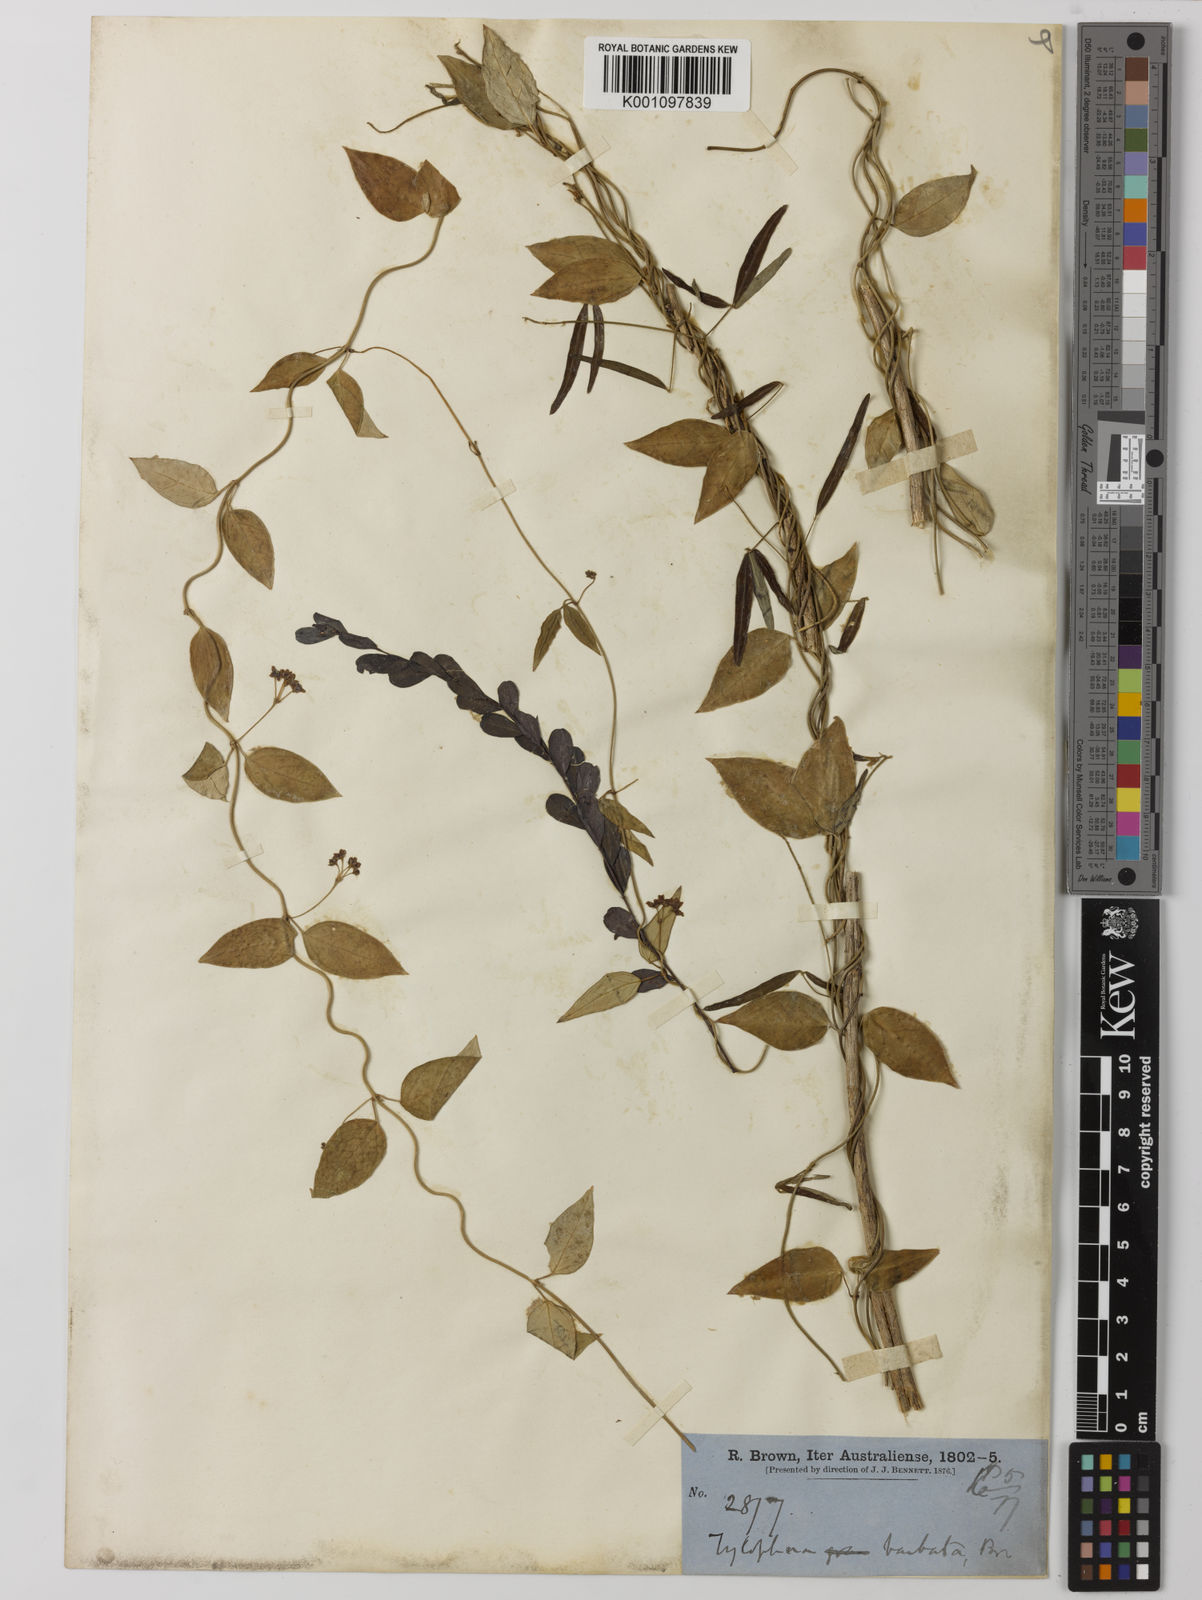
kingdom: Plantae
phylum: Tracheophyta
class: Magnoliopsida
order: Gentianales
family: Apocynaceae
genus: Vincetoxicum
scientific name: Vincetoxicum barbatum
